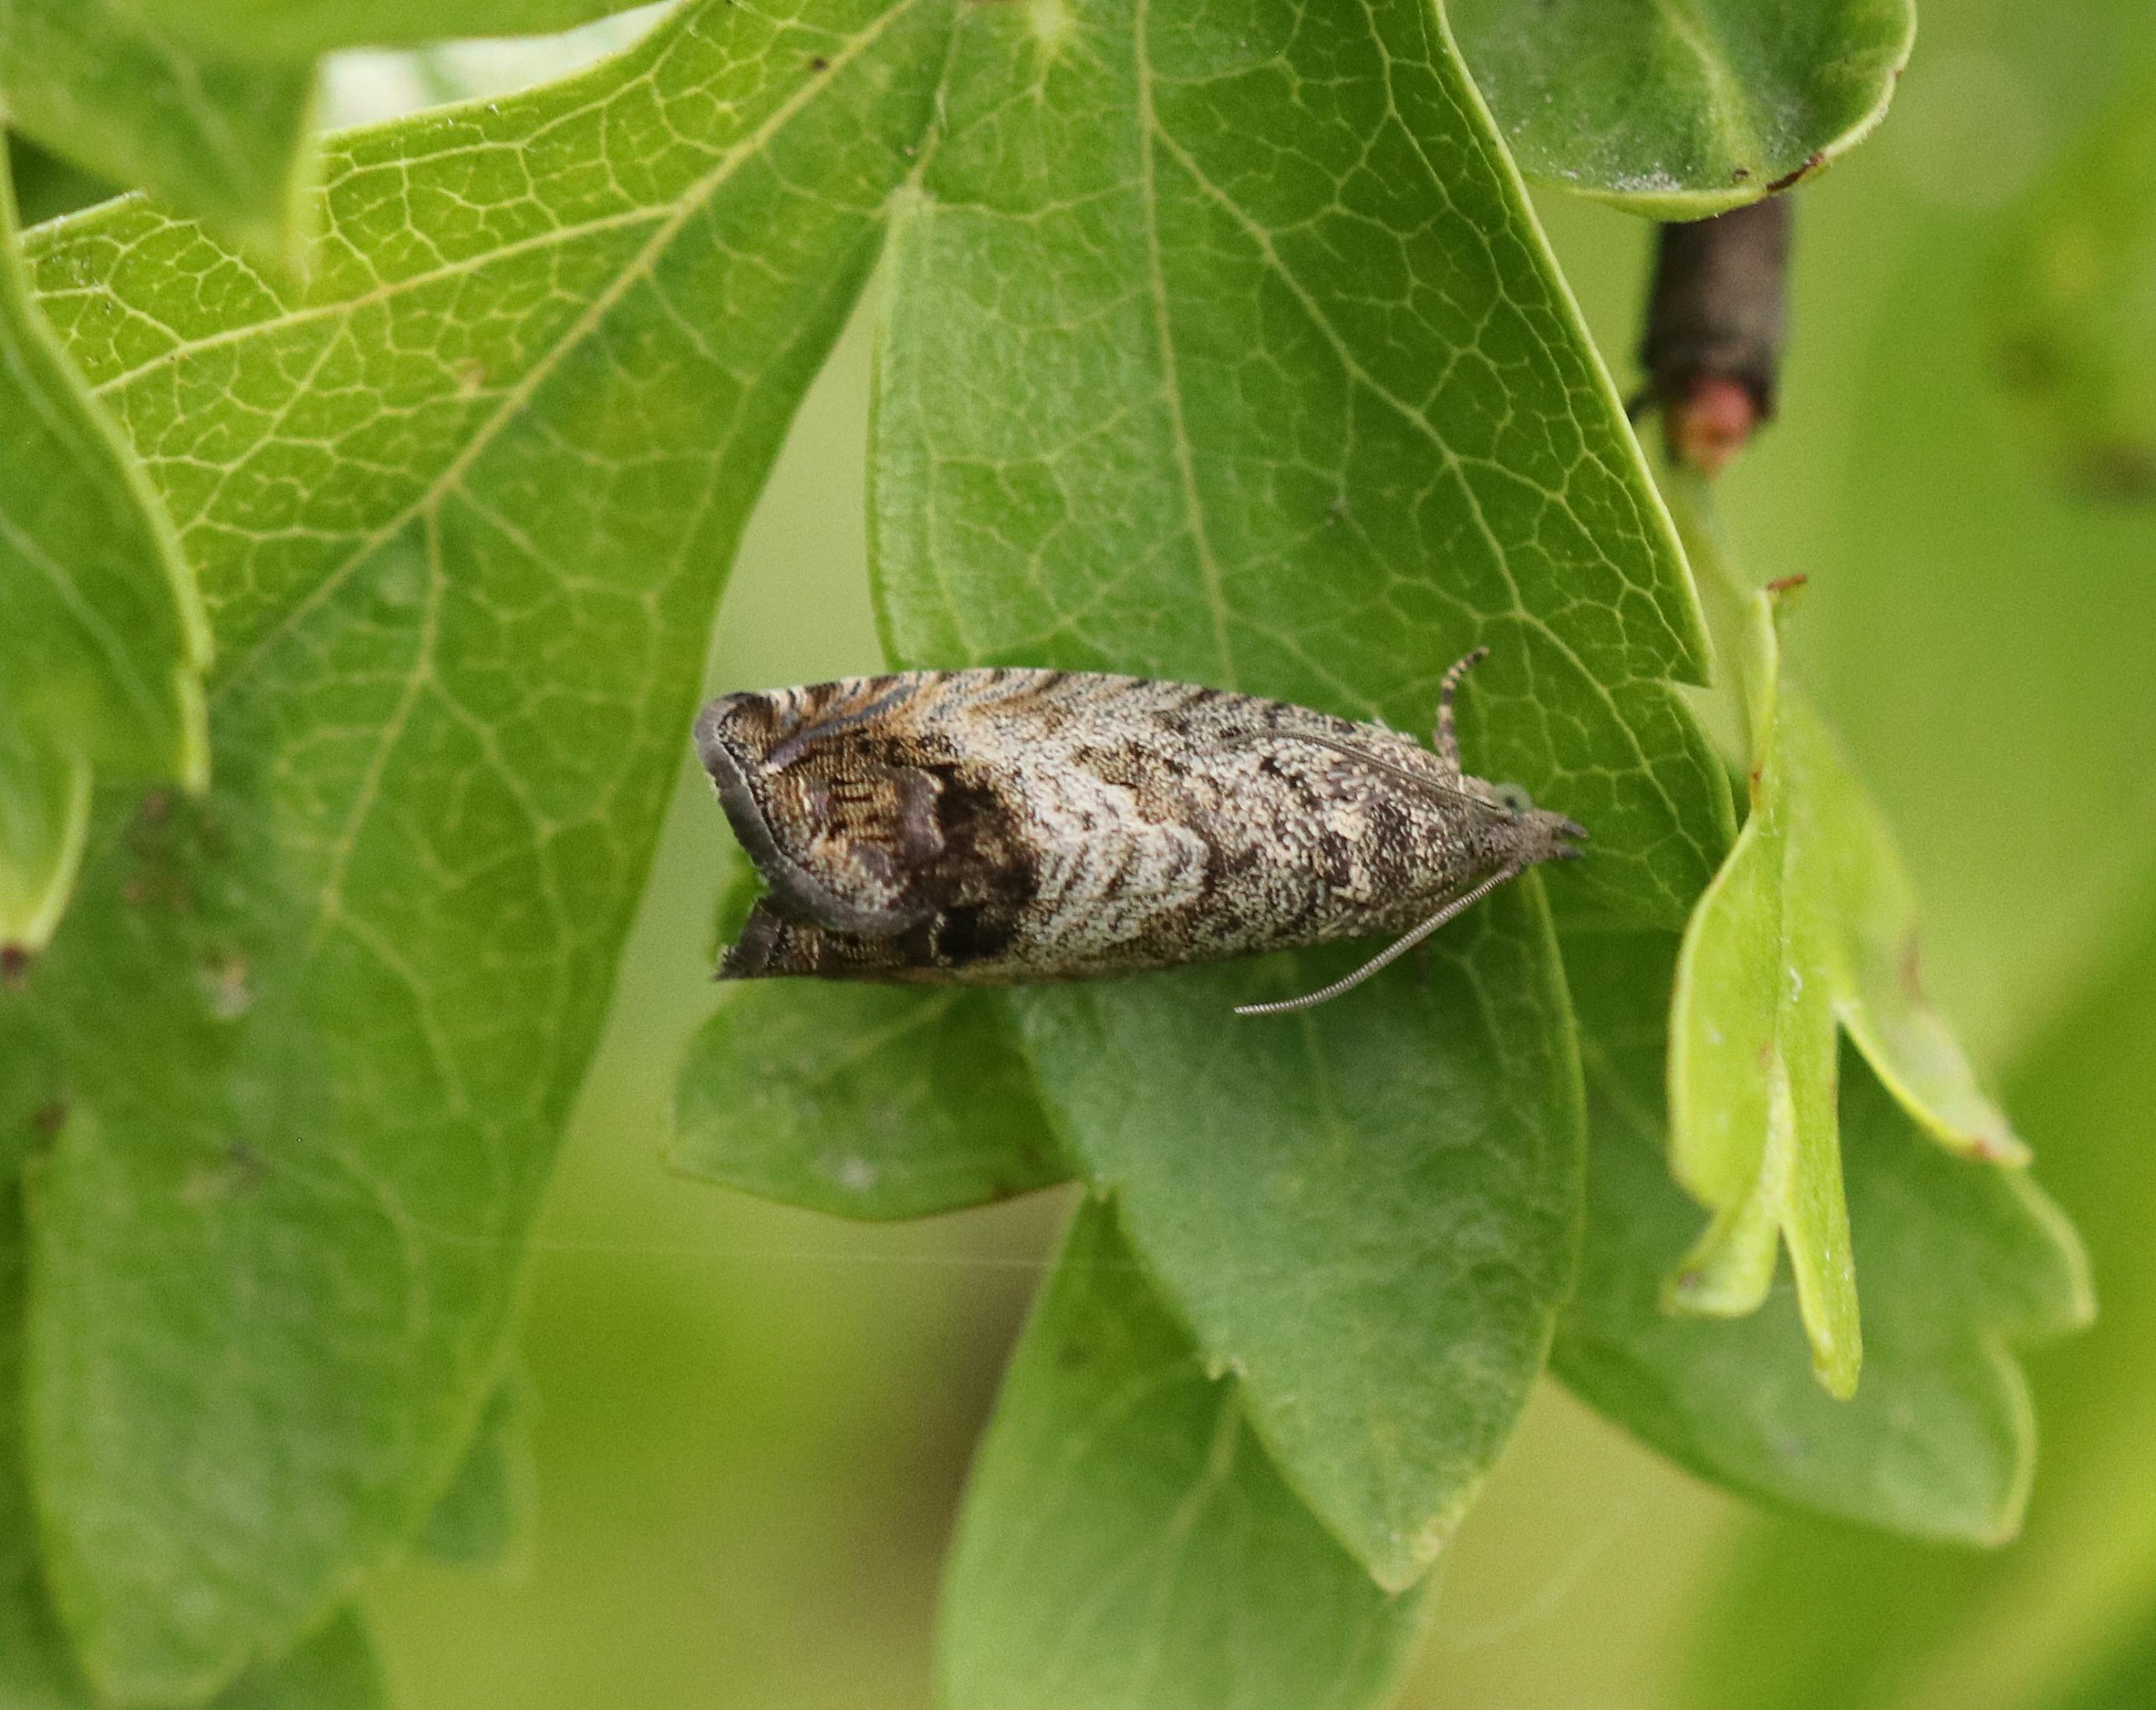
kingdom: Animalia
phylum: Arthropoda
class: Insecta
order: Lepidoptera
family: Tortricidae
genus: Cydia
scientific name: Cydia splendana
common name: Agernvikler
